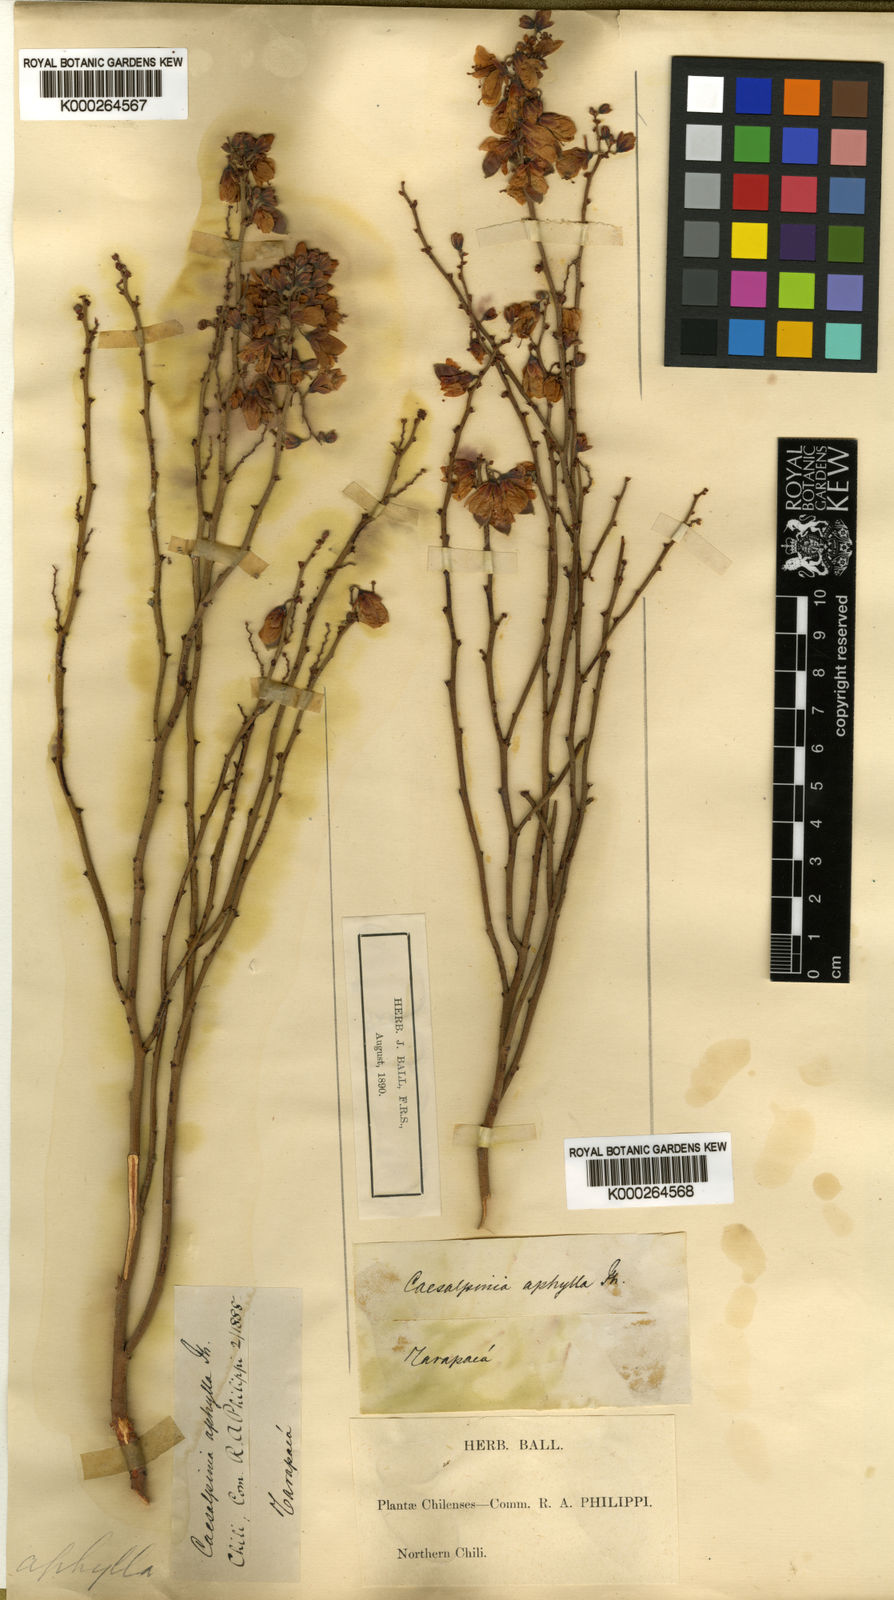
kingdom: Plantae
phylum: Tracheophyta
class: Magnoliopsida
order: Fabales
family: Fabaceae
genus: Hoffmannseggia
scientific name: Hoffmannseggia aphylla
